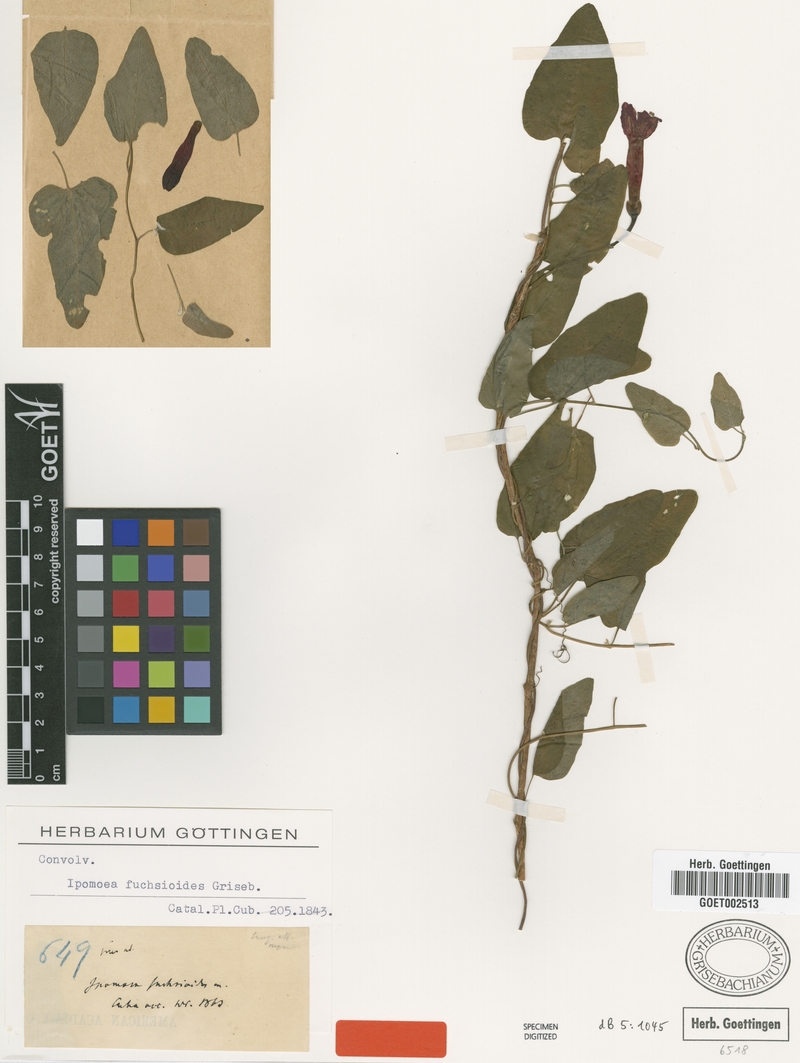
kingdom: Plantae
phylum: Tracheophyta
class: Magnoliopsida
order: Solanales
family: Convolvulaceae
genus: Ipomoea
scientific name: Ipomoea fuchsioides
